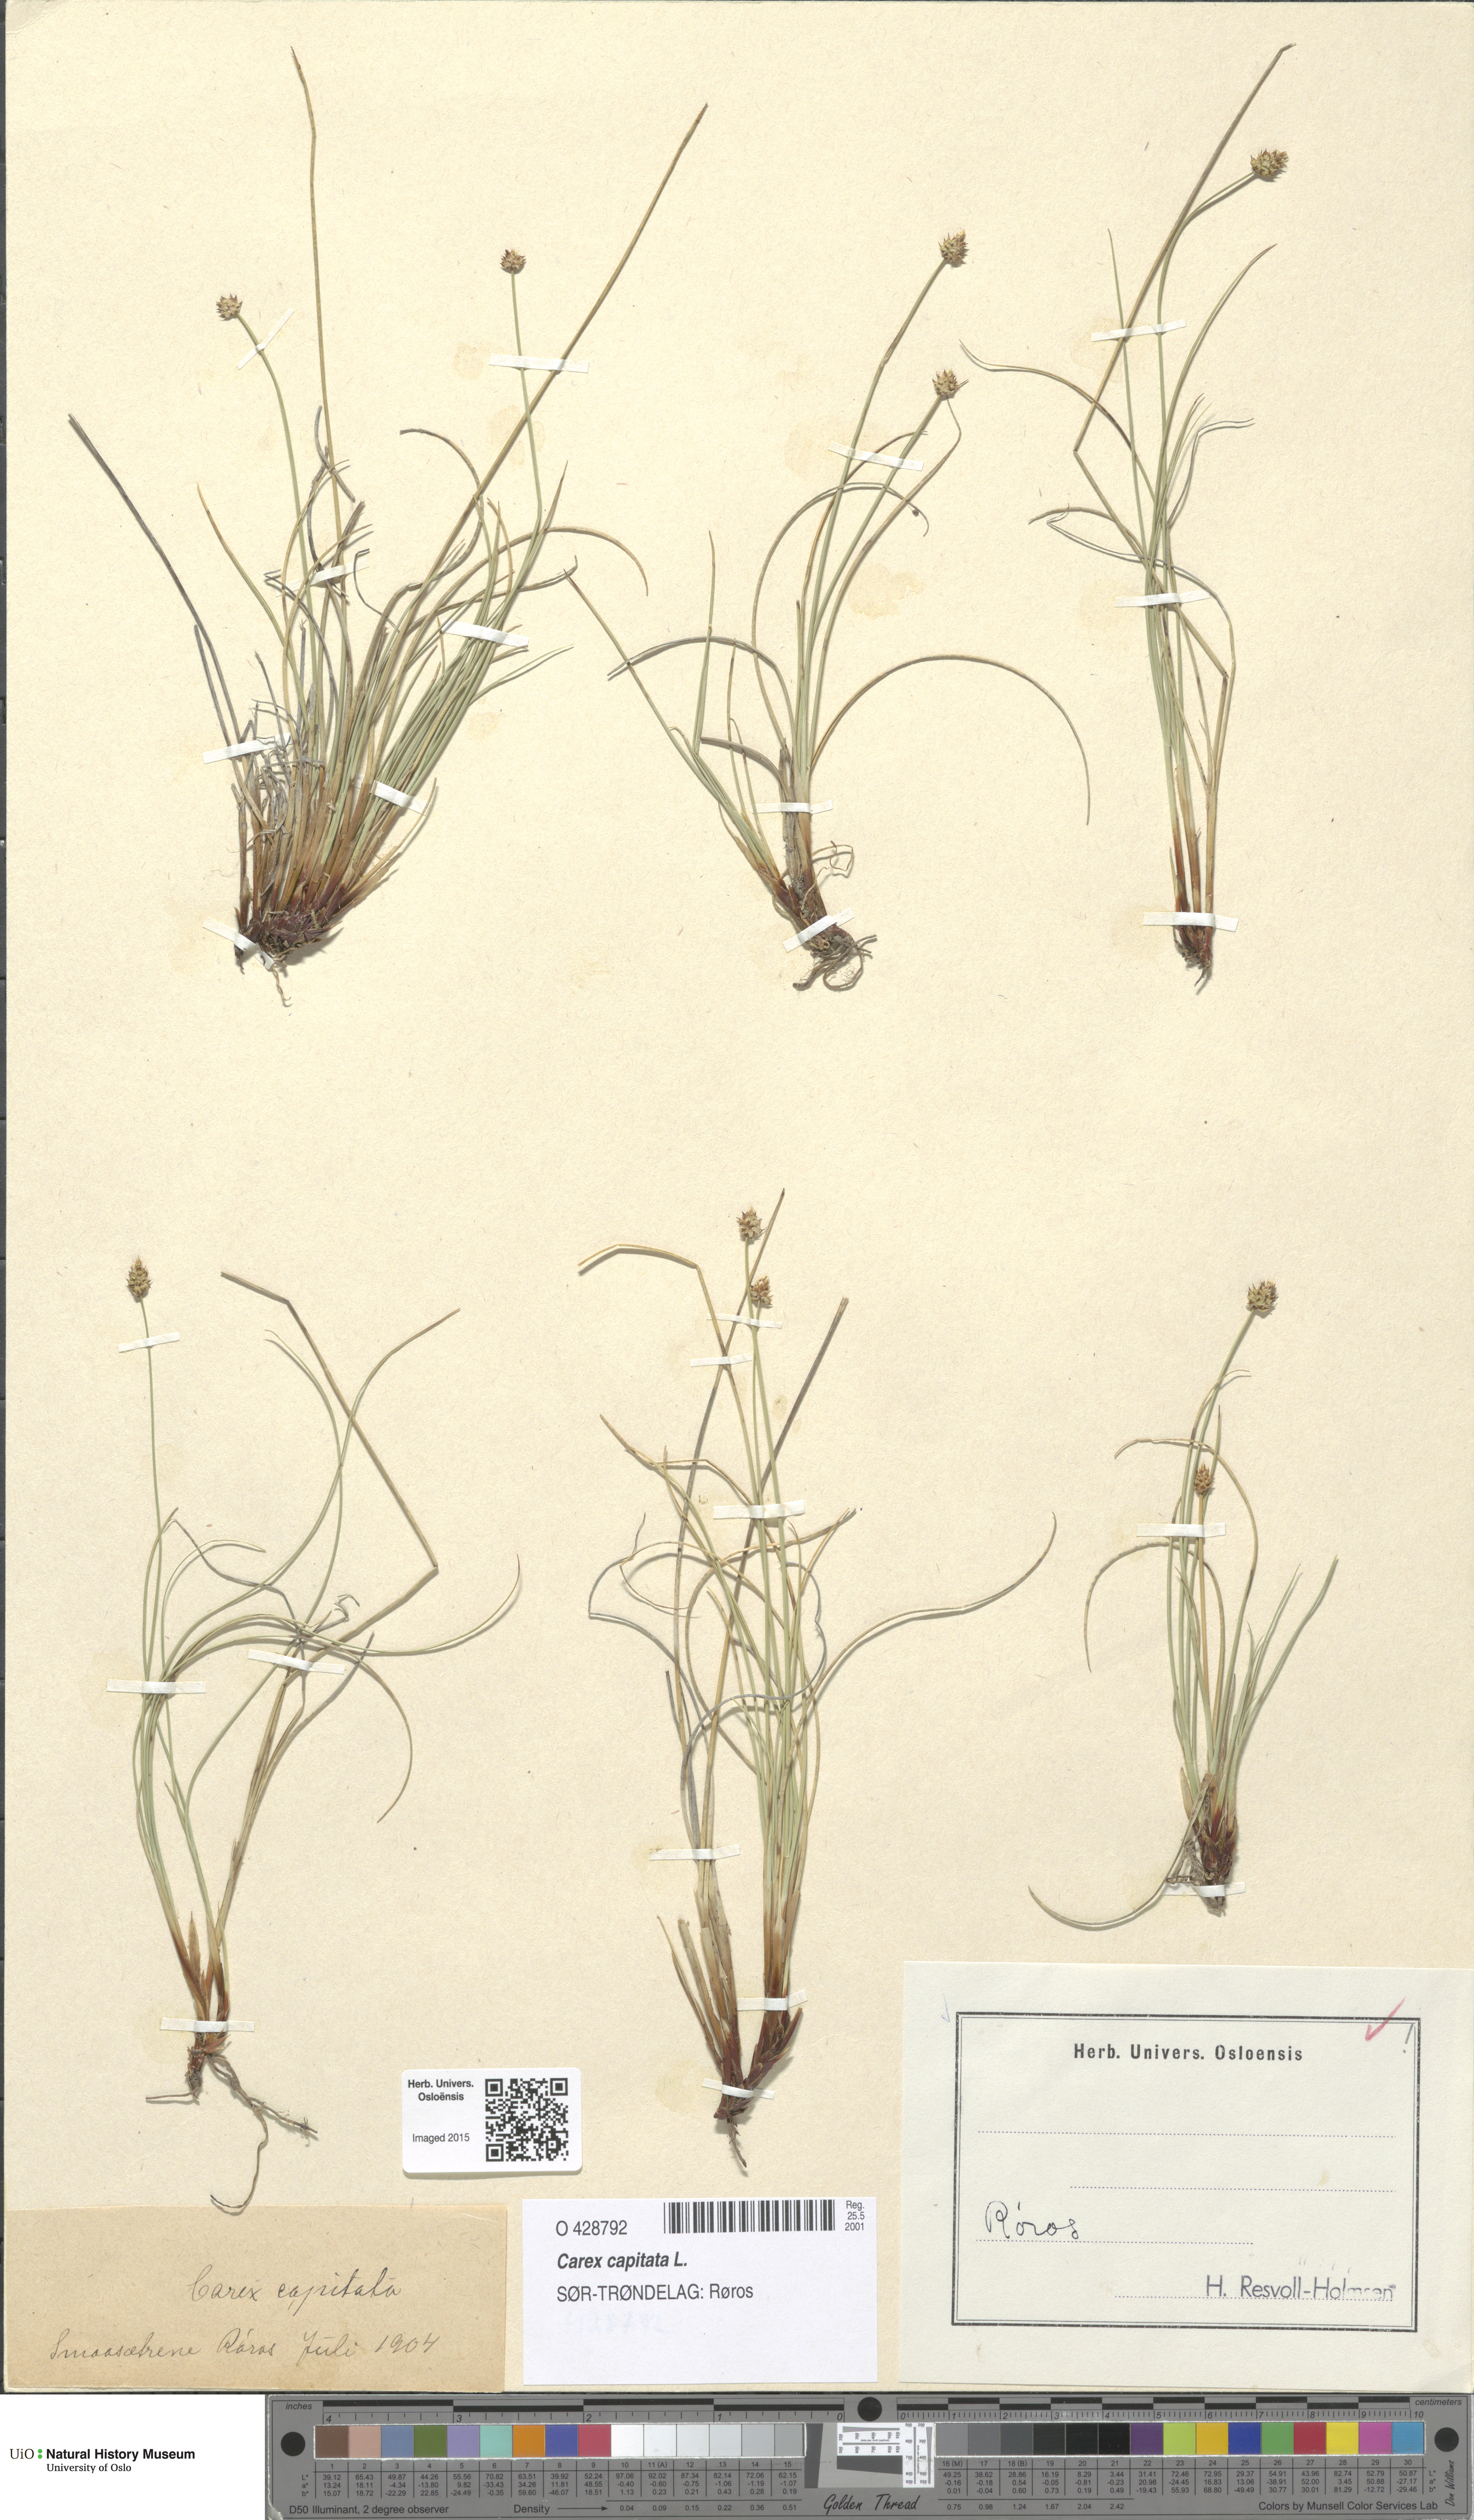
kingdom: Plantae
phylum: Tracheophyta
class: Liliopsida
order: Poales
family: Cyperaceae
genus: Carex
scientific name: Carex capitata
